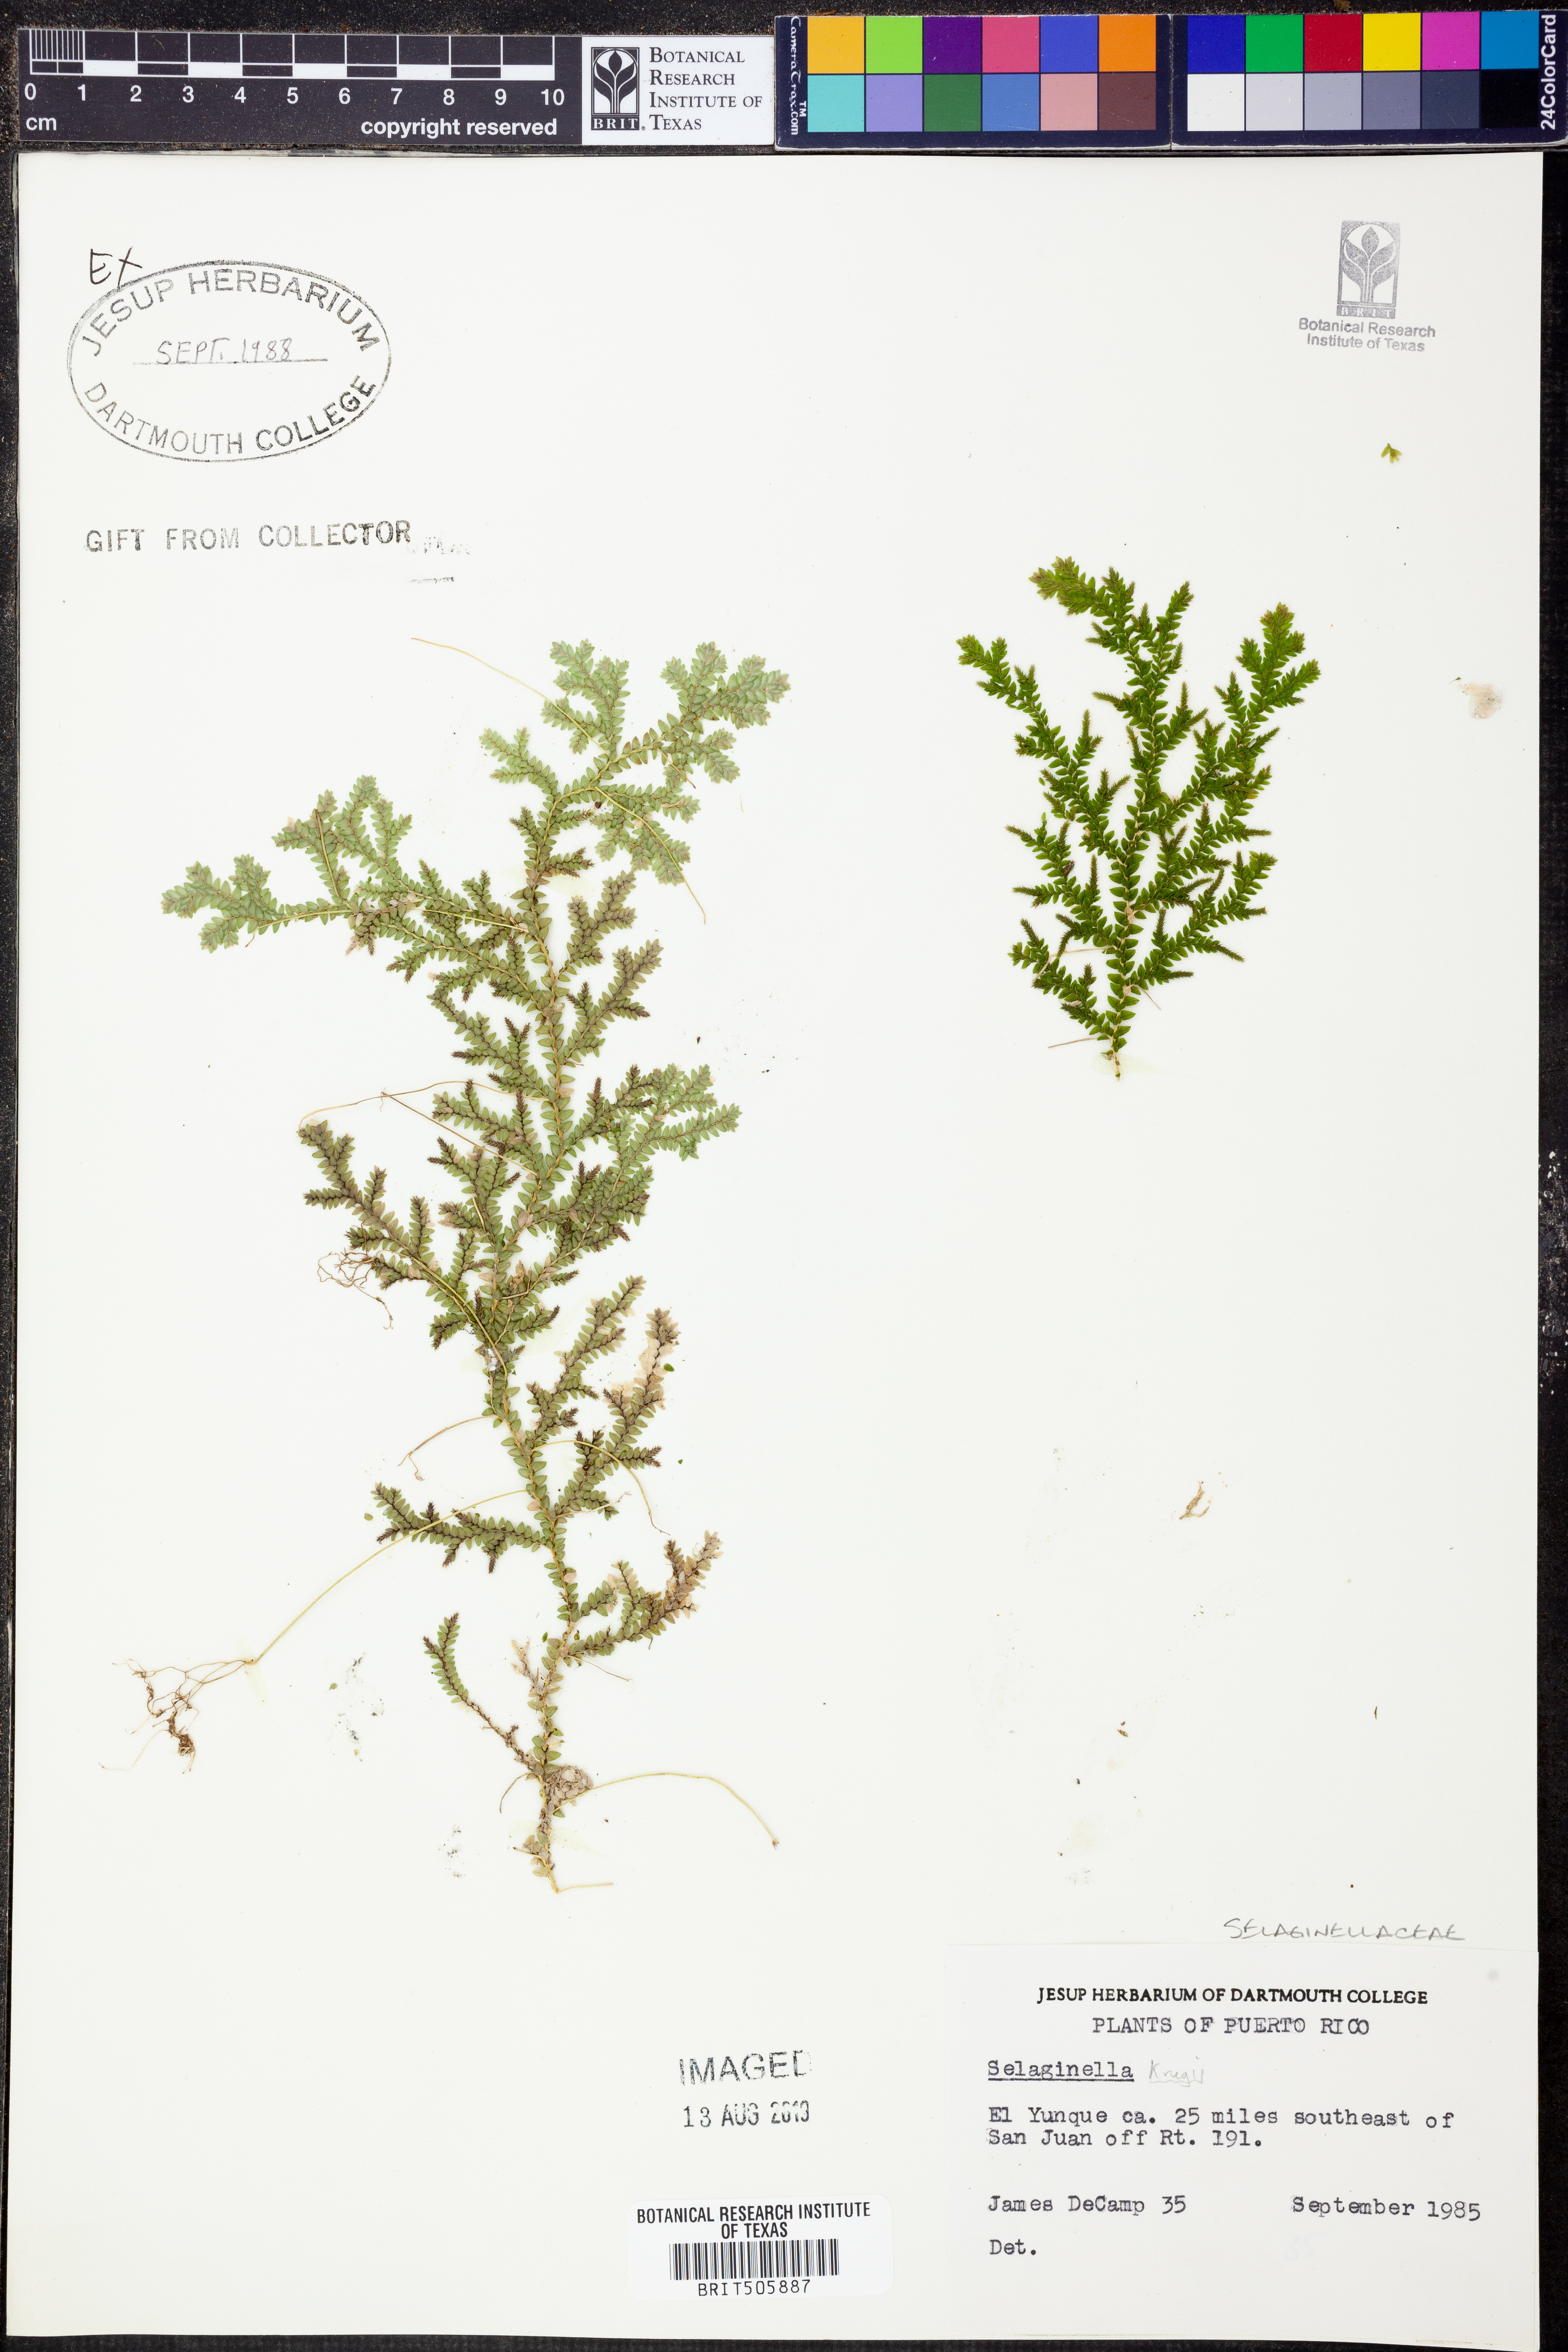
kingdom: Plantae
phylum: Tracheophyta
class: Lycopodiopsida
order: Selaginellales
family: Selaginellaceae
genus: Selaginella
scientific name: Selaginella krugii
